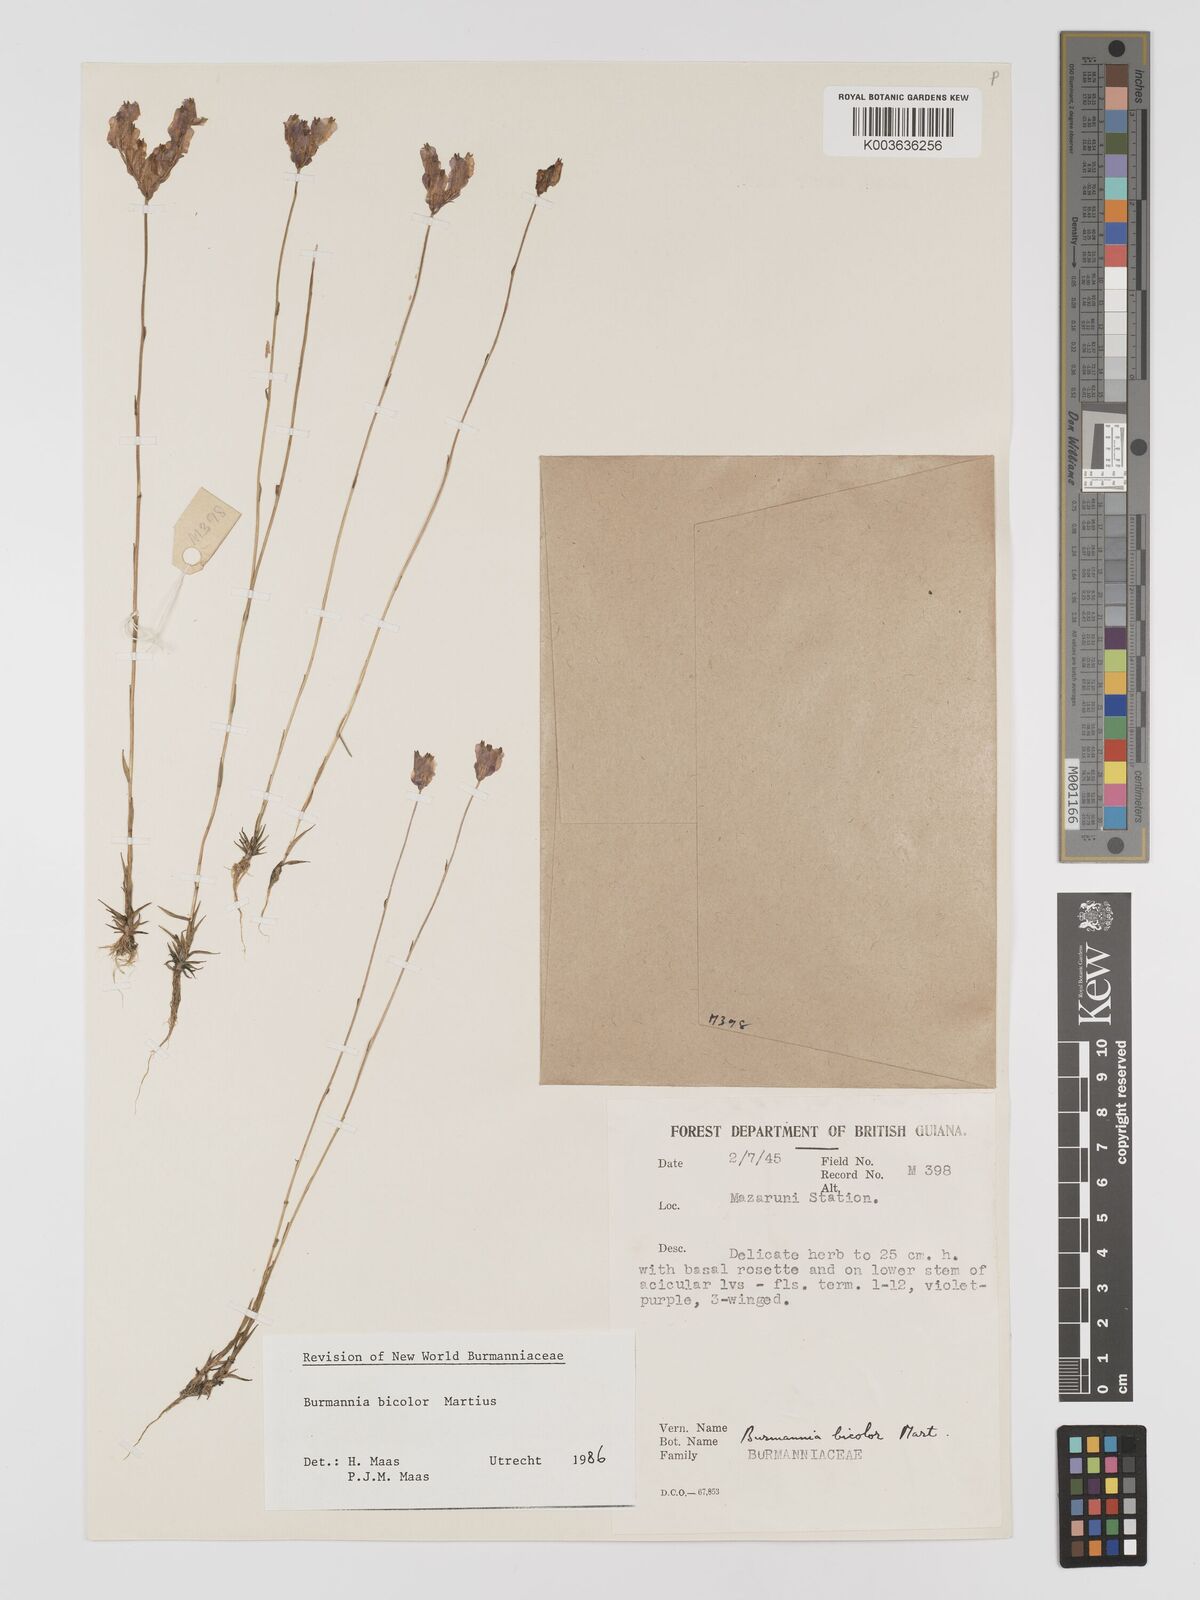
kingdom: Plantae
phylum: Tracheophyta
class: Liliopsida
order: Dioscoreales
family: Burmanniaceae
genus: Burmannia
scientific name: Burmannia bicolor
